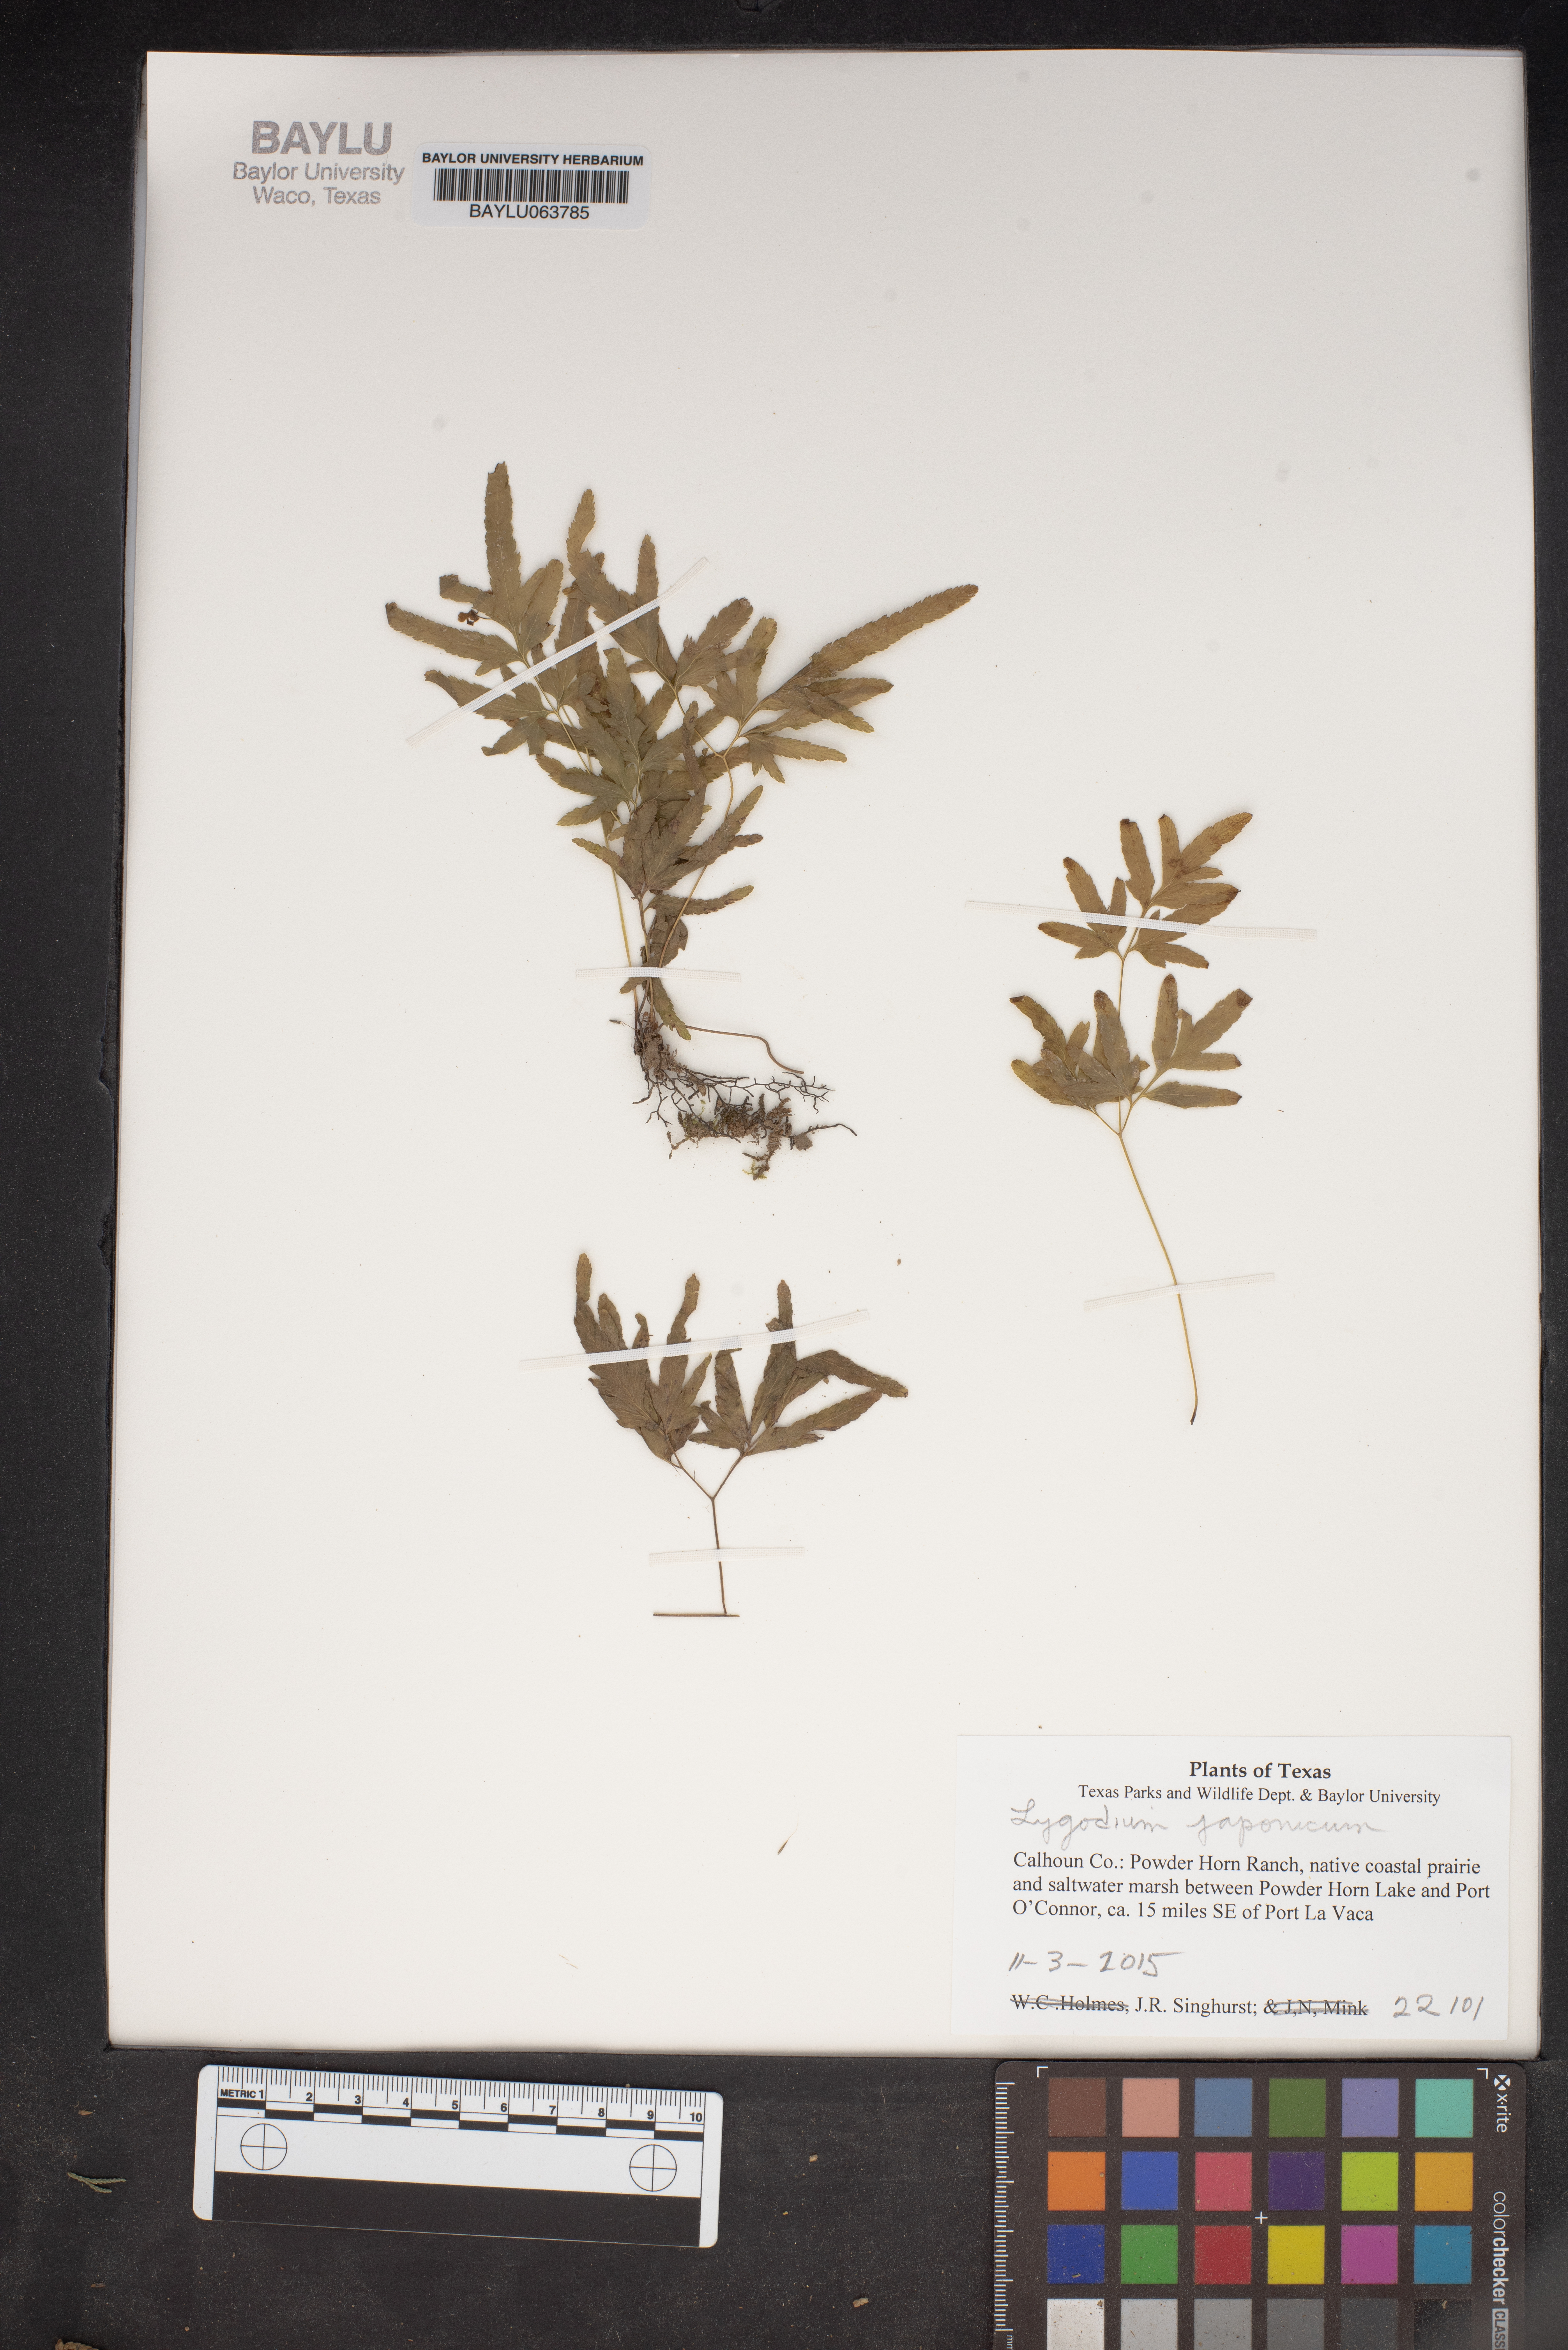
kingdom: Plantae
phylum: Tracheophyta
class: Polypodiopsida
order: Schizaeales
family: Lygodiaceae
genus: Lygodium
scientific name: Lygodium japonicum
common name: Japanese climbing fern
